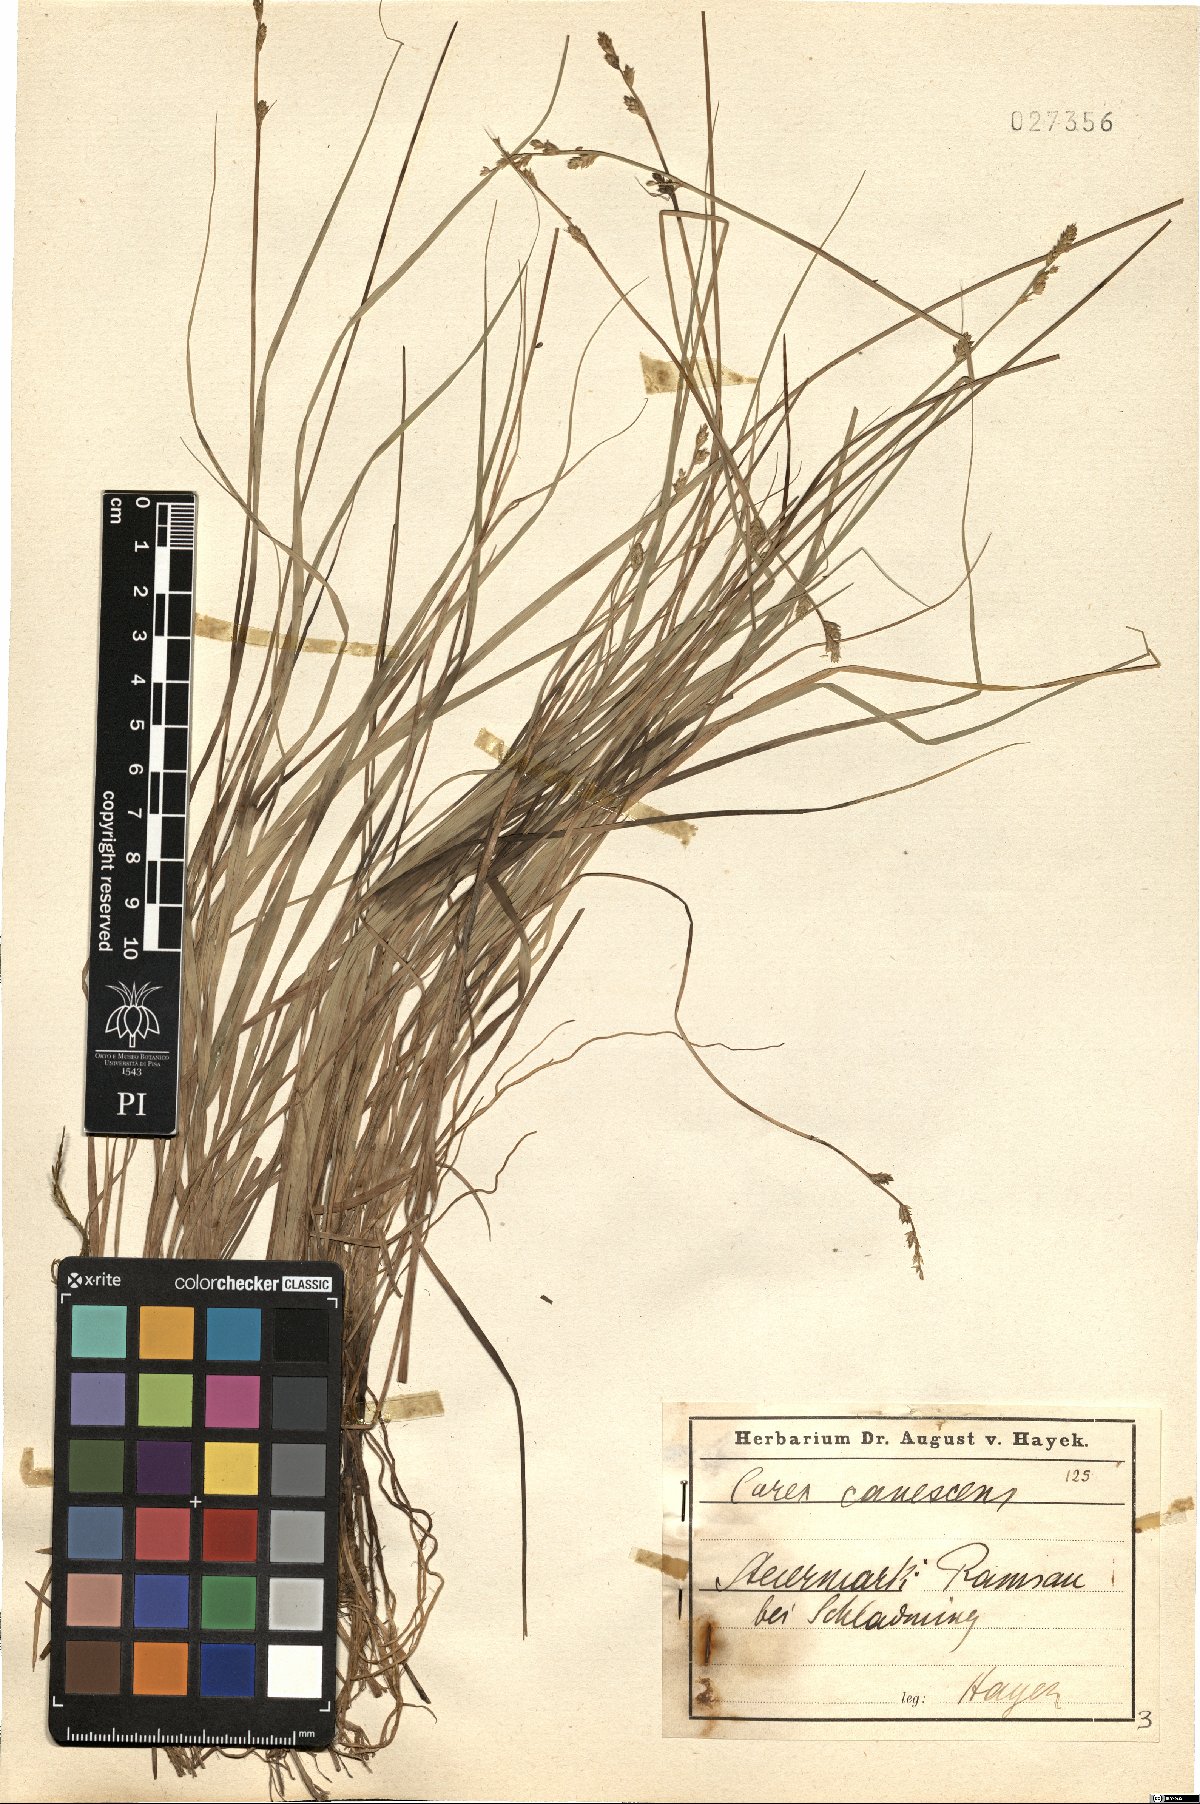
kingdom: Plantae
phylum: Tracheophyta
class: Liliopsida
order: Poales
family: Cyperaceae
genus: Carex
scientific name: Carex canescens
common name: White sedge
